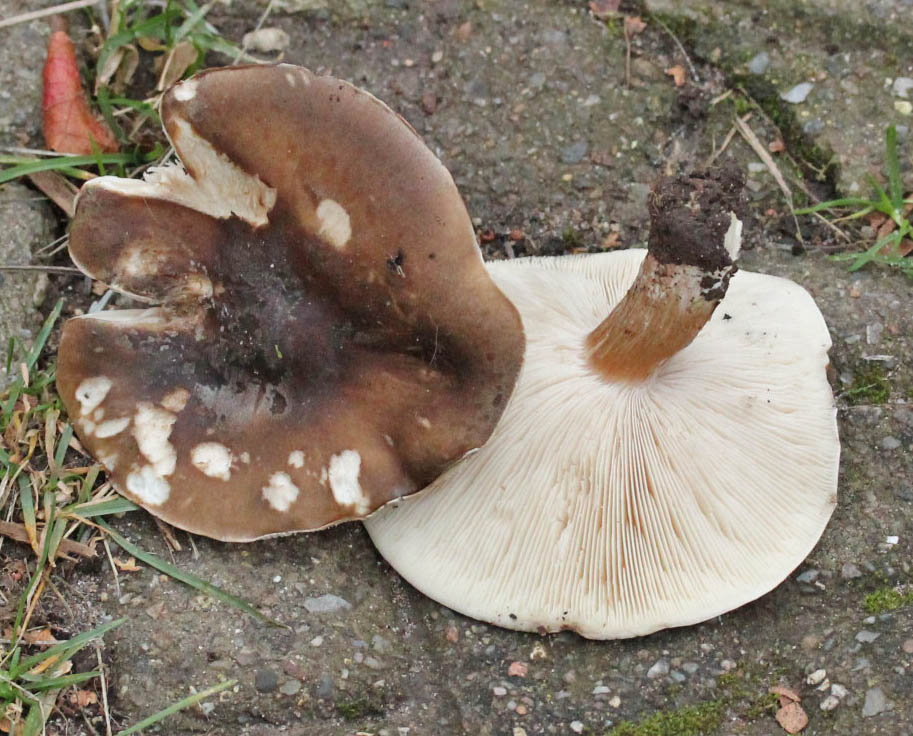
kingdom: Fungi
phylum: Basidiomycota
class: Agaricomycetes
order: Agaricales
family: Tricholomataceae
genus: Melanoleuca
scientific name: Melanoleuca
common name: munkehat
